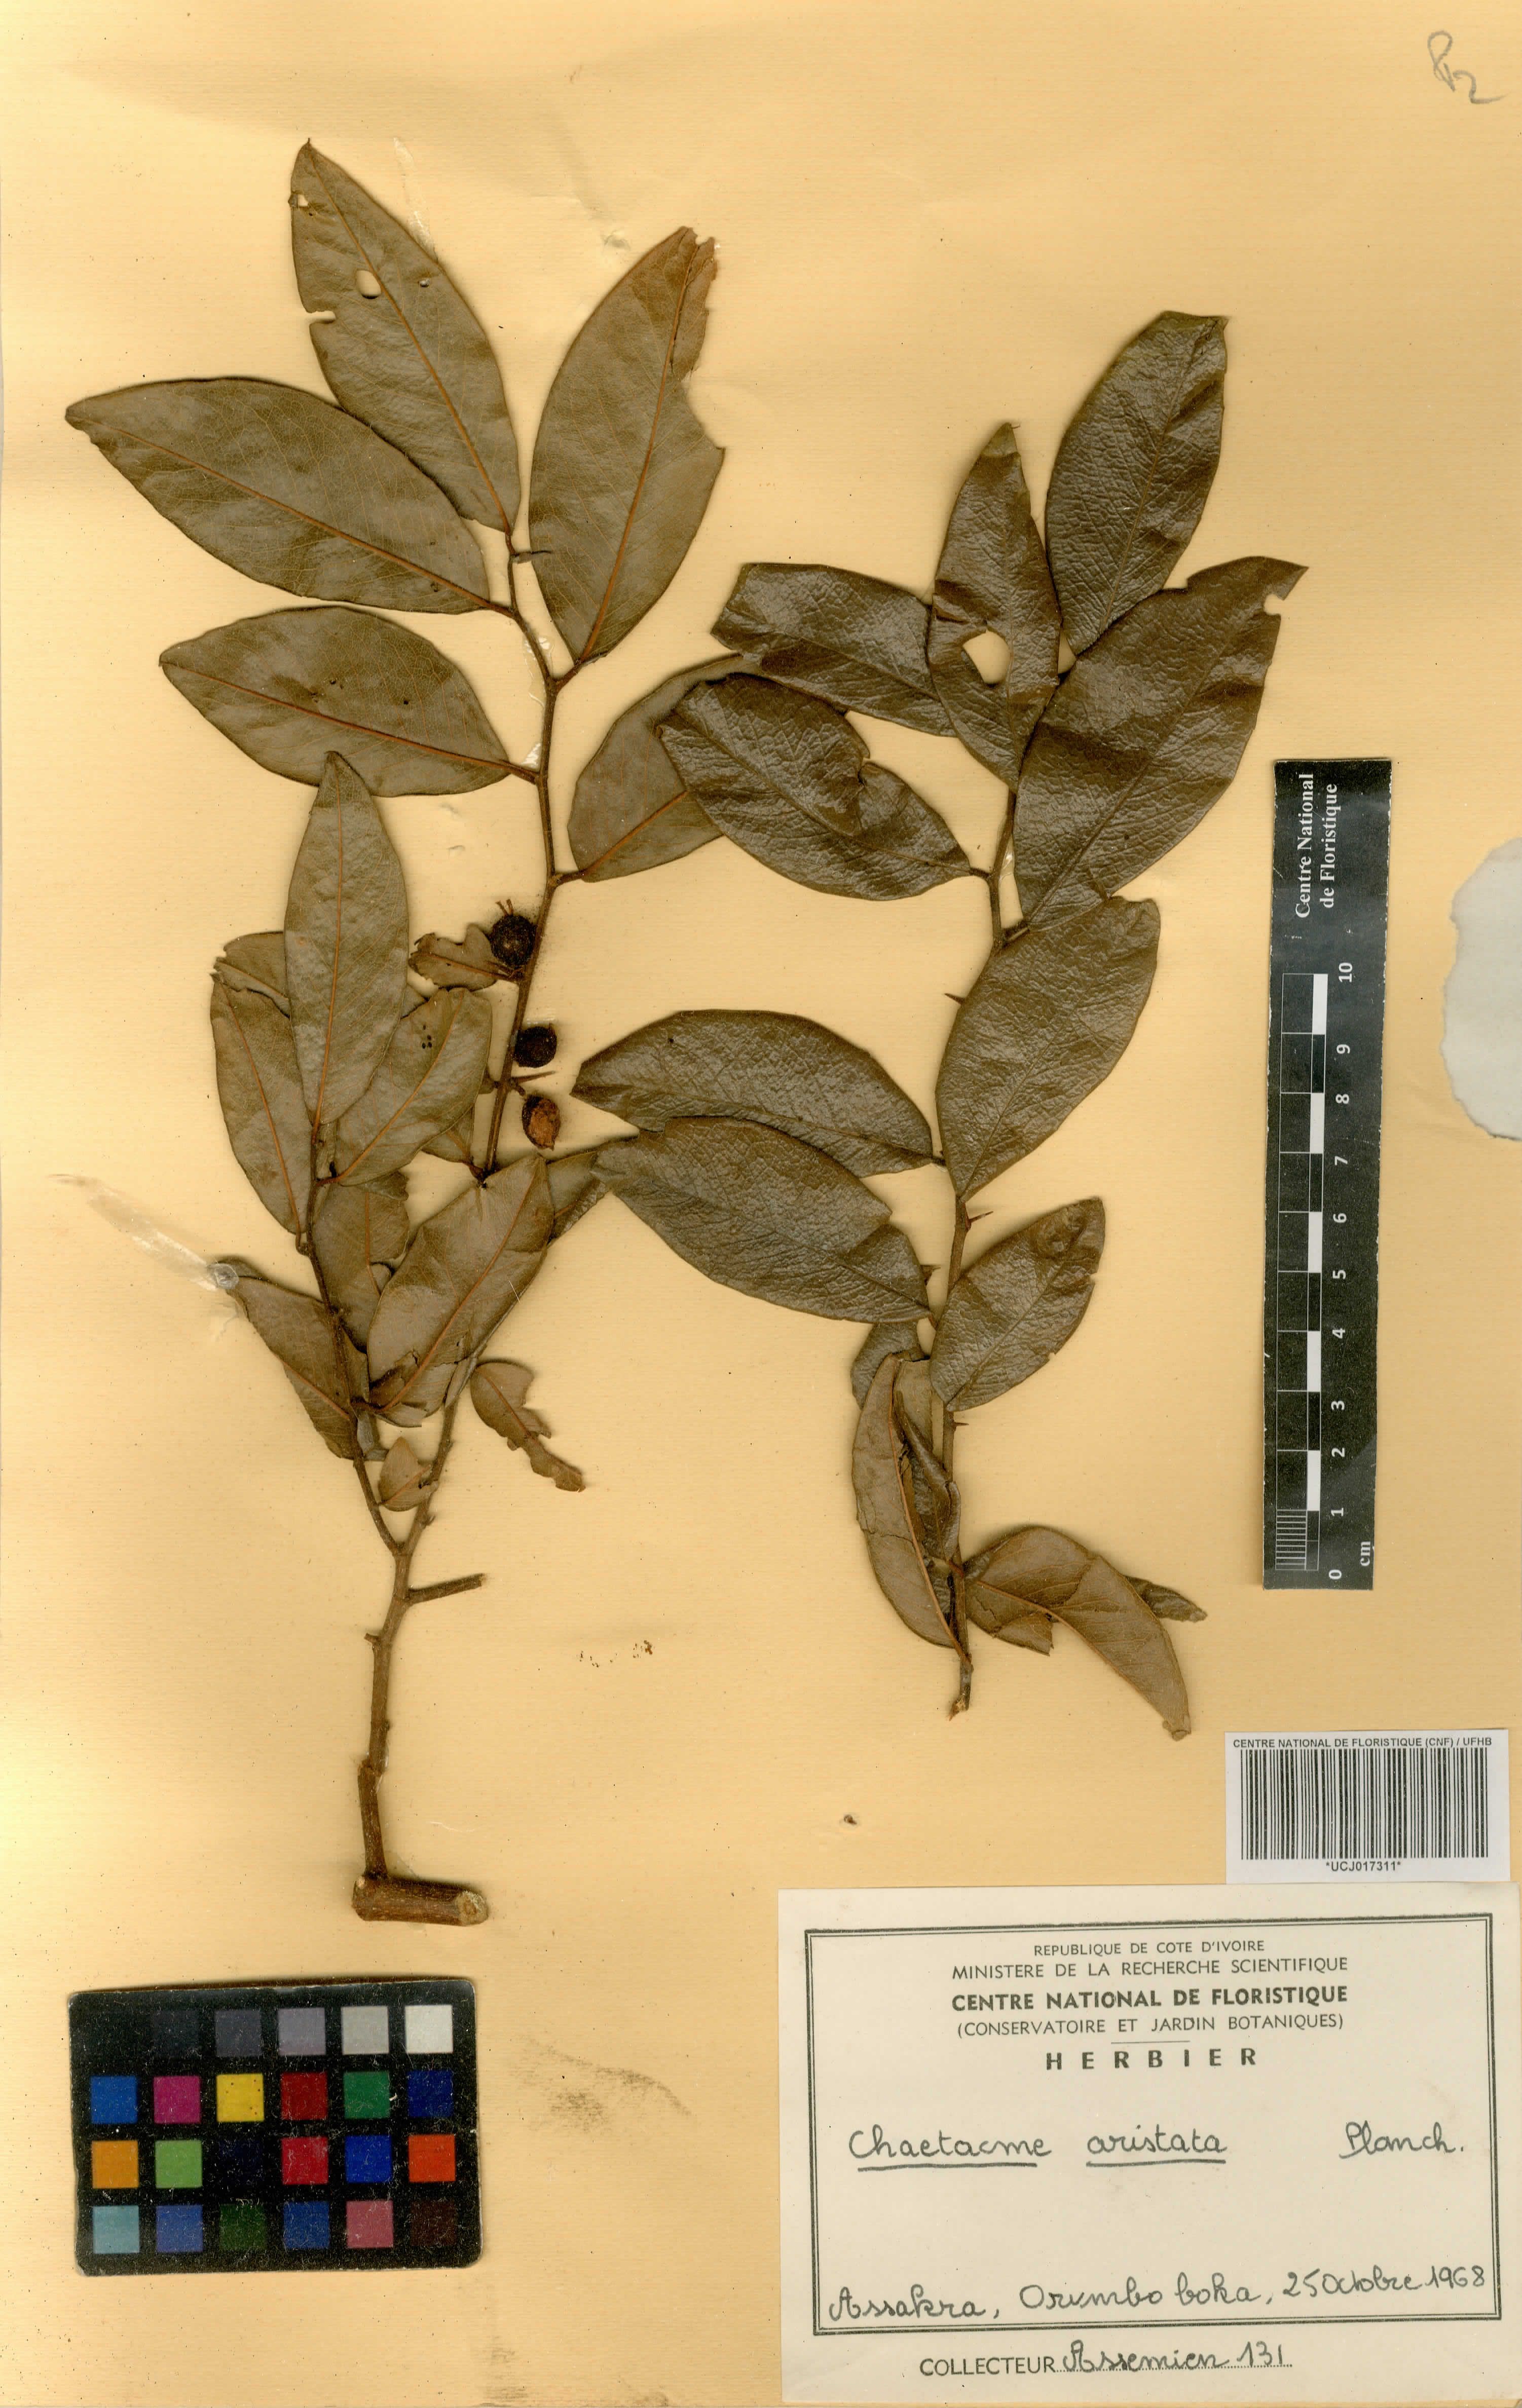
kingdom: Plantae
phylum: Tracheophyta
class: Magnoliopsida
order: Rosales
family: Cannabaceae
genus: Chaetachme
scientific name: Chaetachme aristata
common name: Thorny elm
